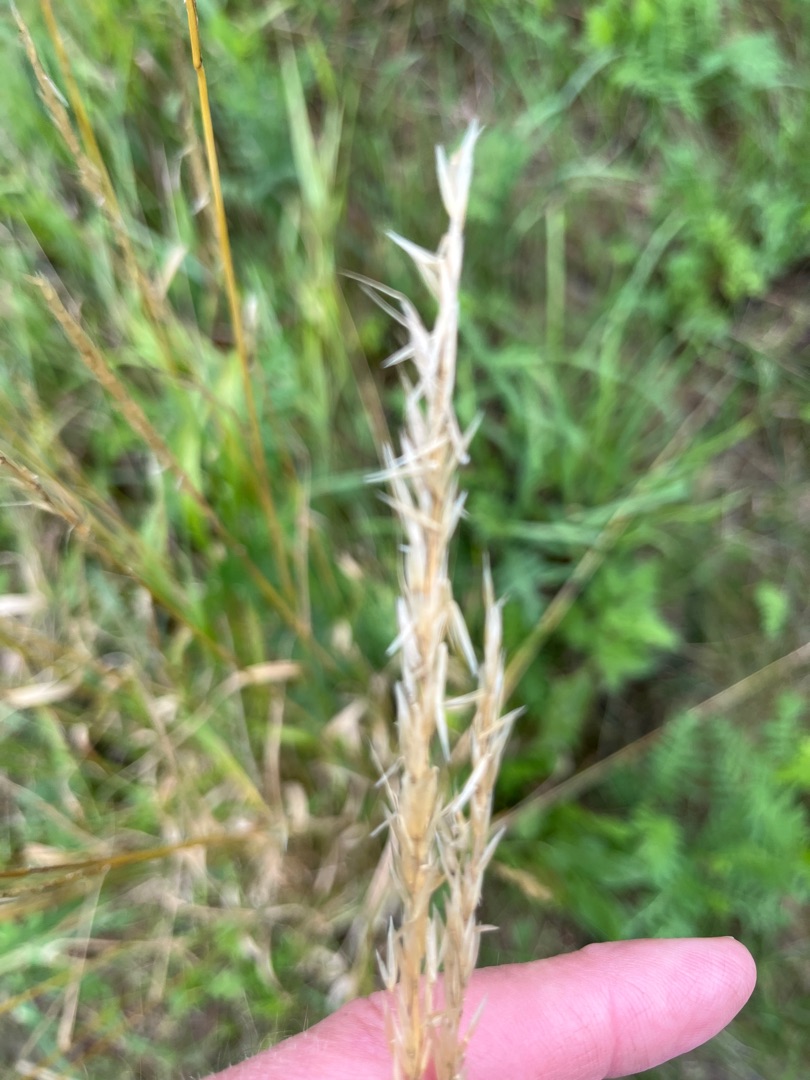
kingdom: Plantae
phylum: Tracheophyta
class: Liliopsida
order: Poales
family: Poaceae
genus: Arrhenatherum
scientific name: Arrhenatherum elatius
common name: Draphavre
